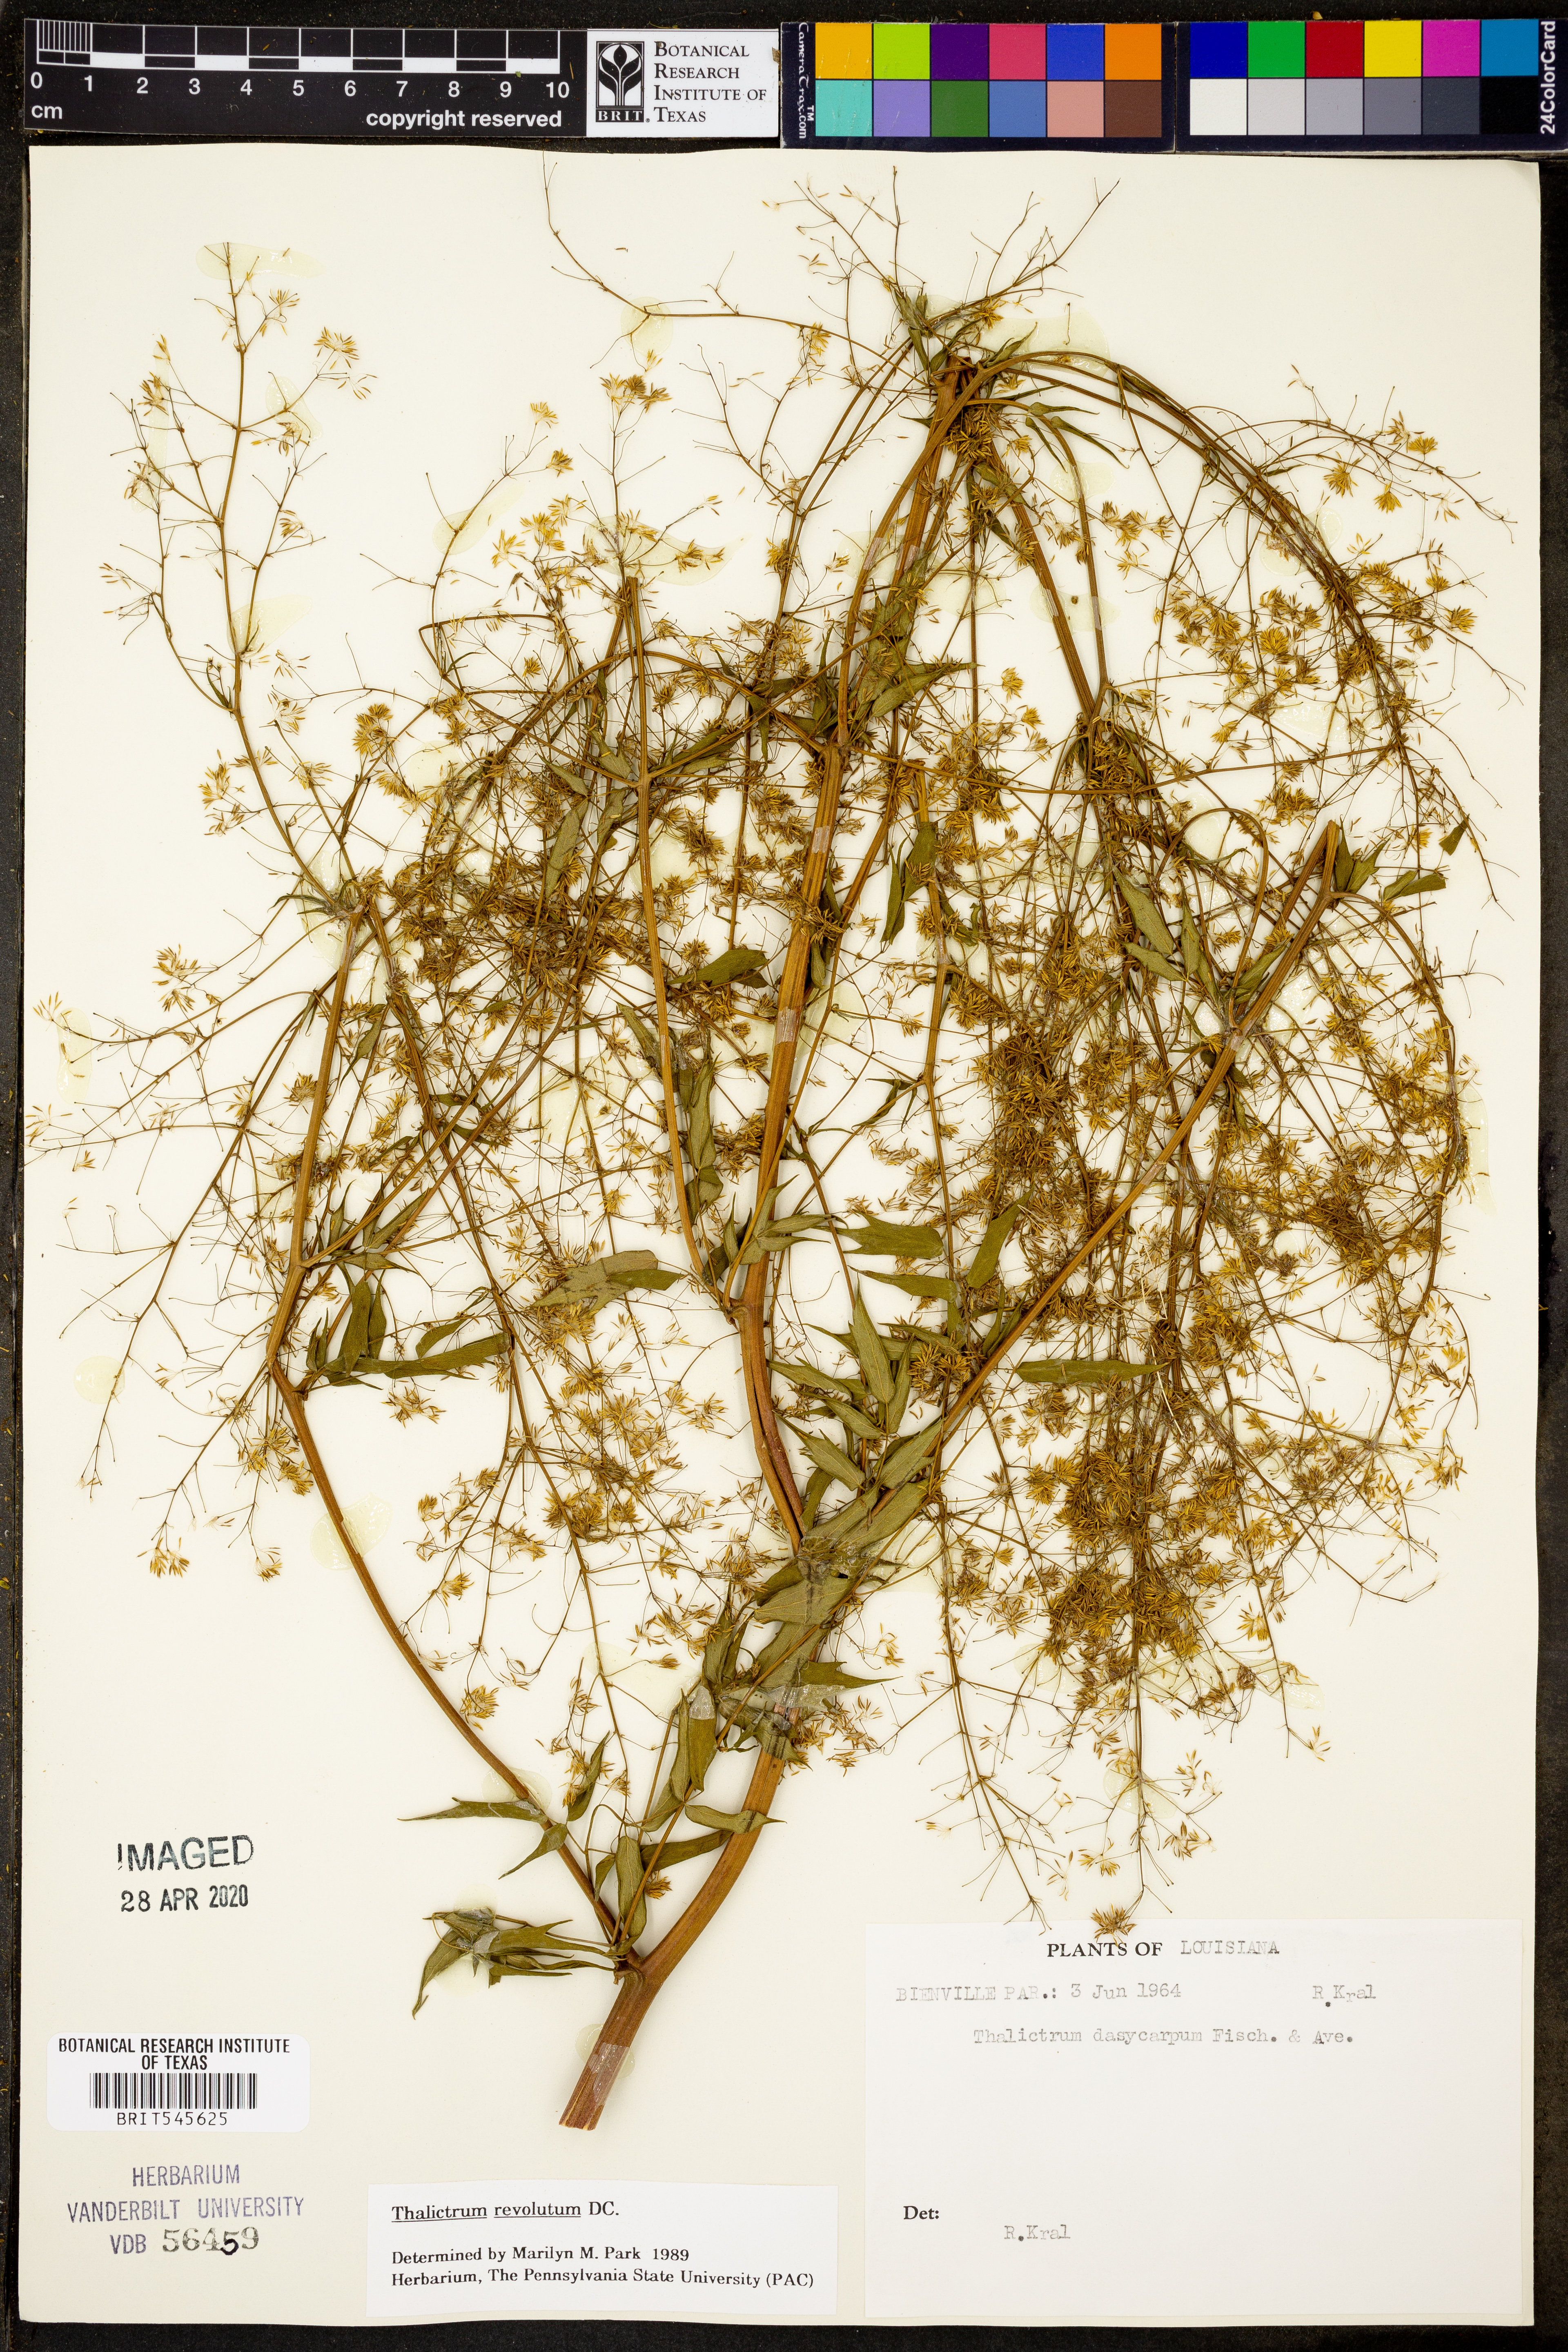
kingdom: Plantae
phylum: Tracheophyta
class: Magnoliopsida
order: Ranunculales
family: Ranunculaceae
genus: Thalictrum
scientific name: Thalictrum revolutum
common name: Waxy meadow-rue
